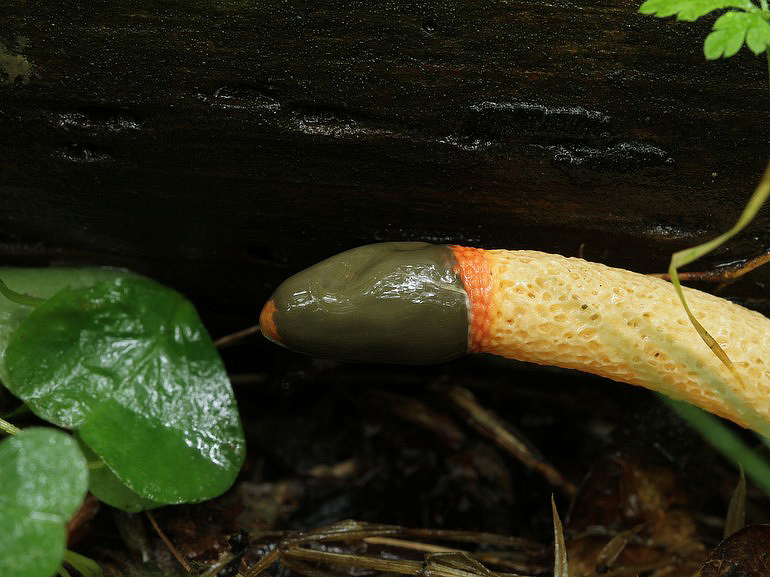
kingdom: Fungi
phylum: Basidiomycota
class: Agaricomycetes
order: Phallales
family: Phallaceae
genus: Mutinus
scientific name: Mutinus caninus
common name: hunde-stinksvamp
